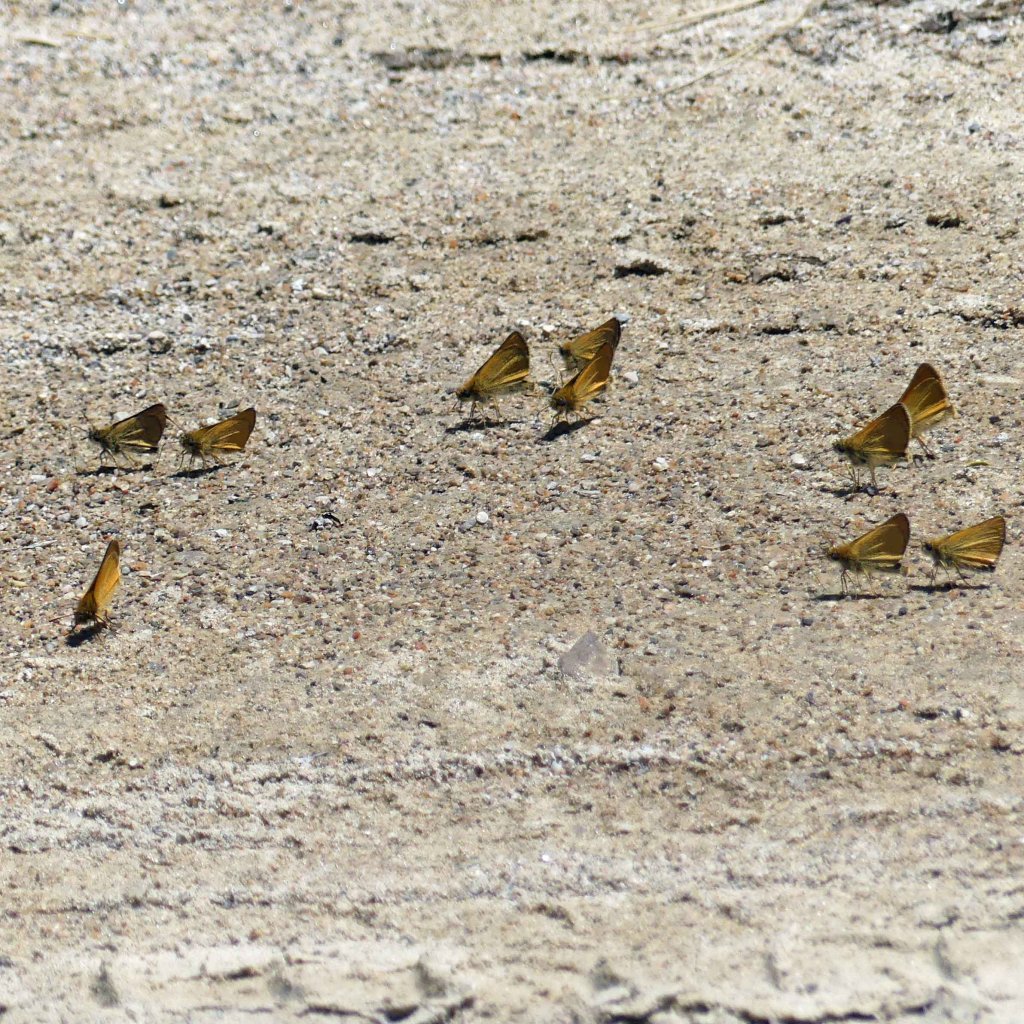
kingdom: Animalia
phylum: Arthropoda
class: Insecta
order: Lepidoptera
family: Hesperiidae
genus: Thymelicus
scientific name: Thymelicus lineola
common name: European Skipper
